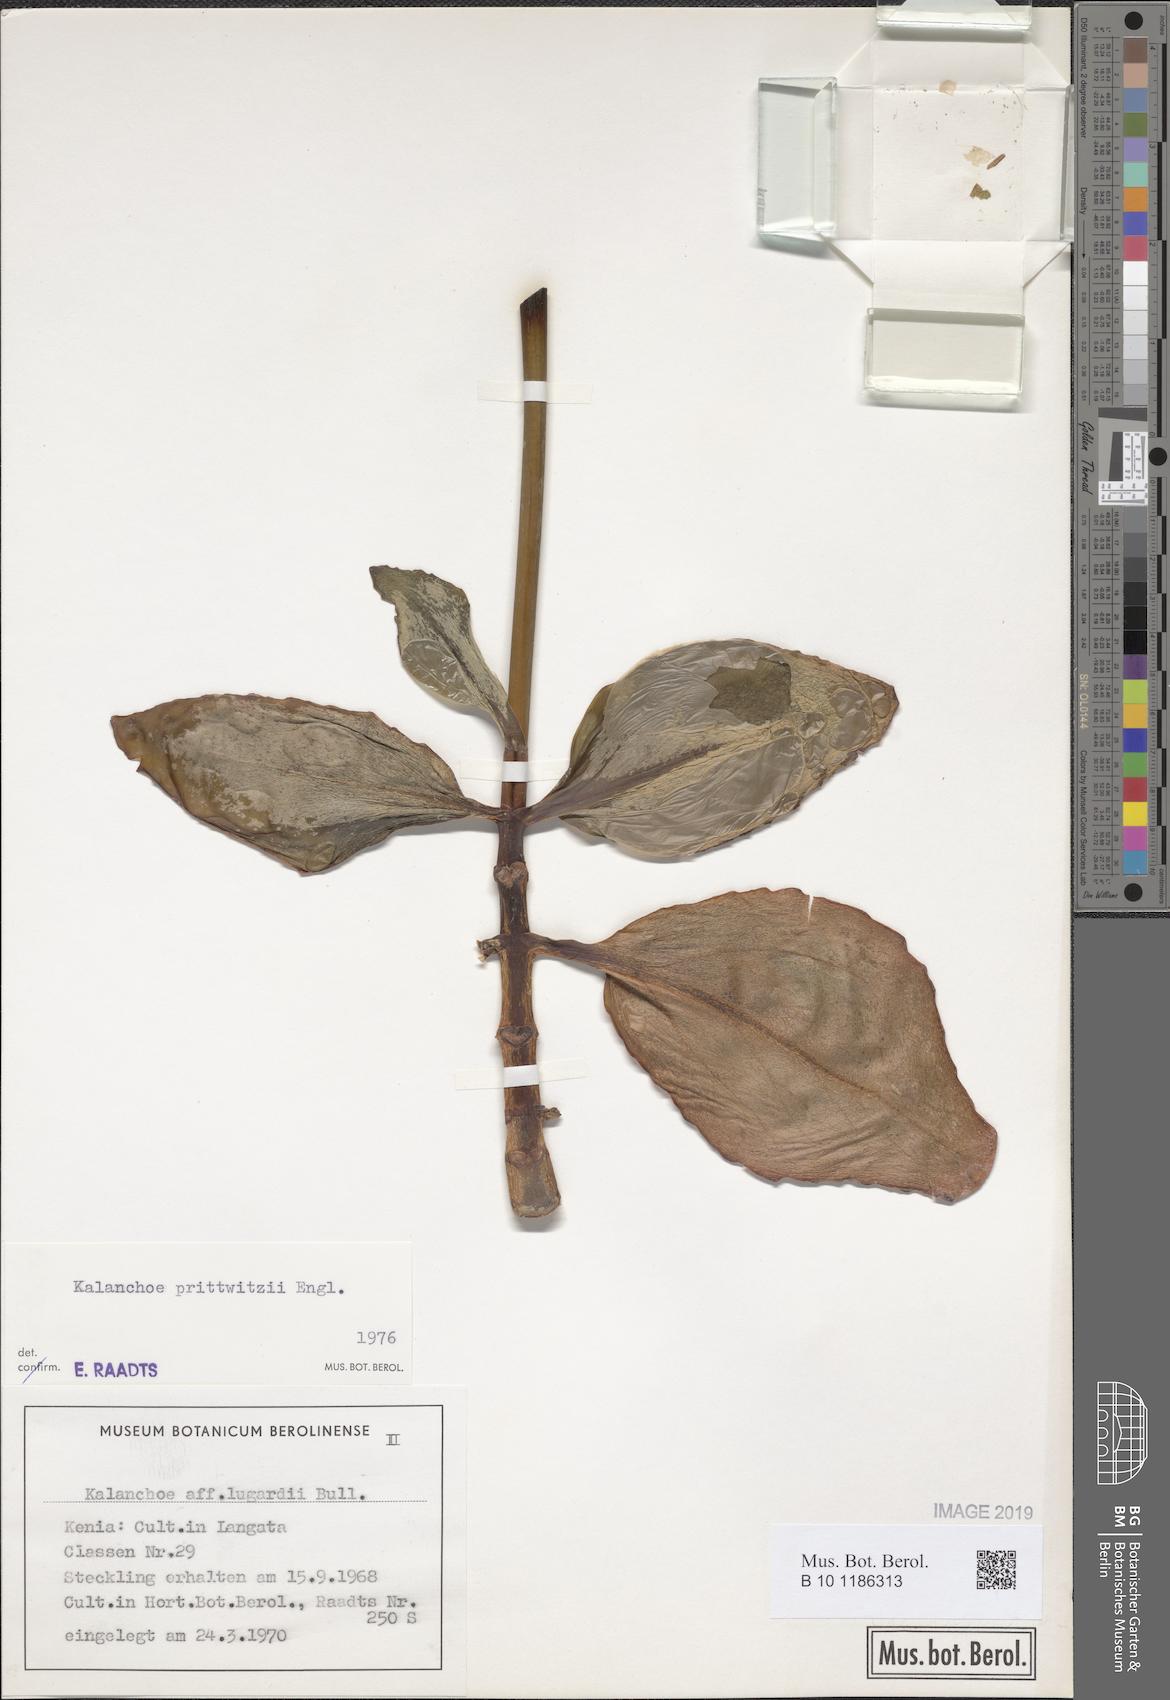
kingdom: Plantae
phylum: Tracheophyta
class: Magnoliopsida
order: Saxifragales
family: Crassulaceae
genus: Kalanchoe
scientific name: Kalanchoe prittwitzii
